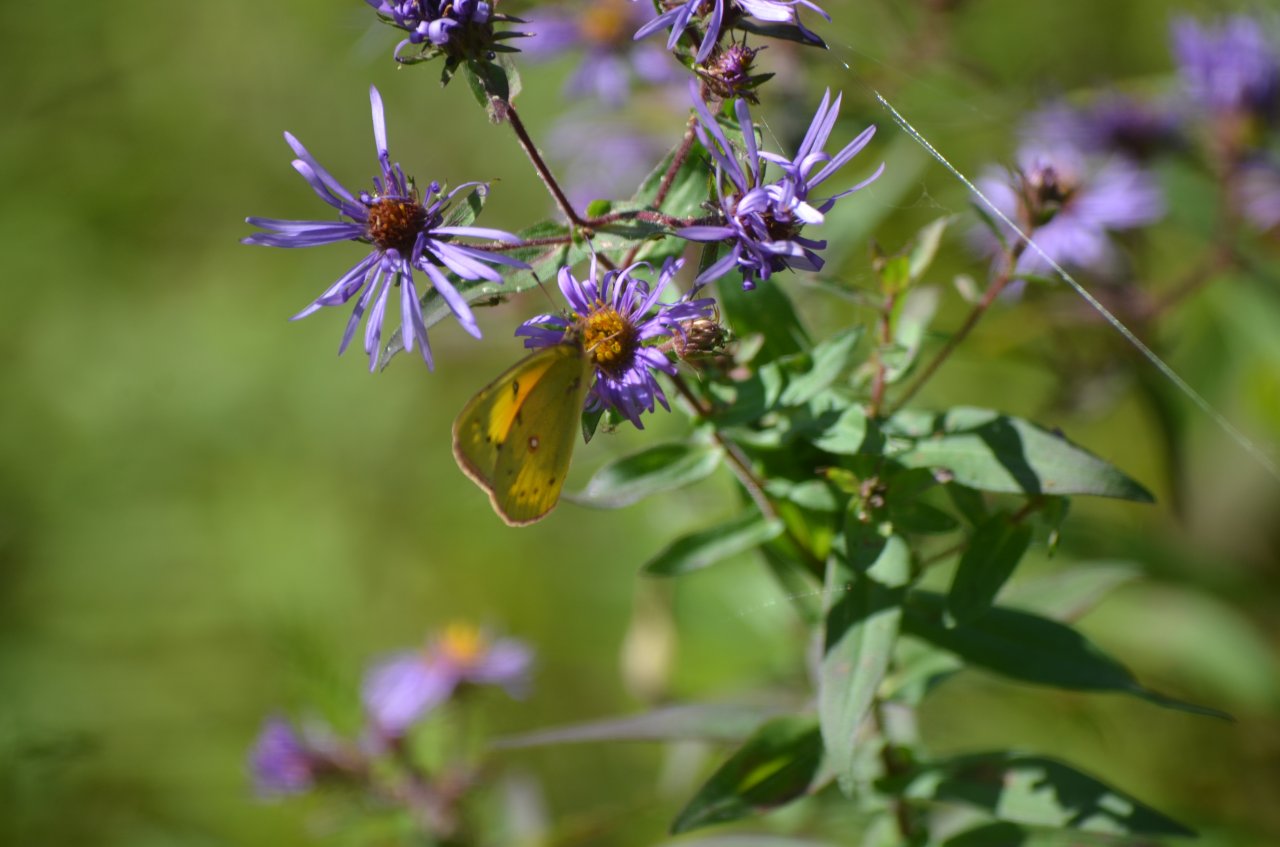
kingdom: Animalia
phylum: Arthropoda
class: Insecta
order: Lepidoptera
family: Pieridae
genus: Colias
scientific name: Colias eurytheme
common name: Orange Sulphur
